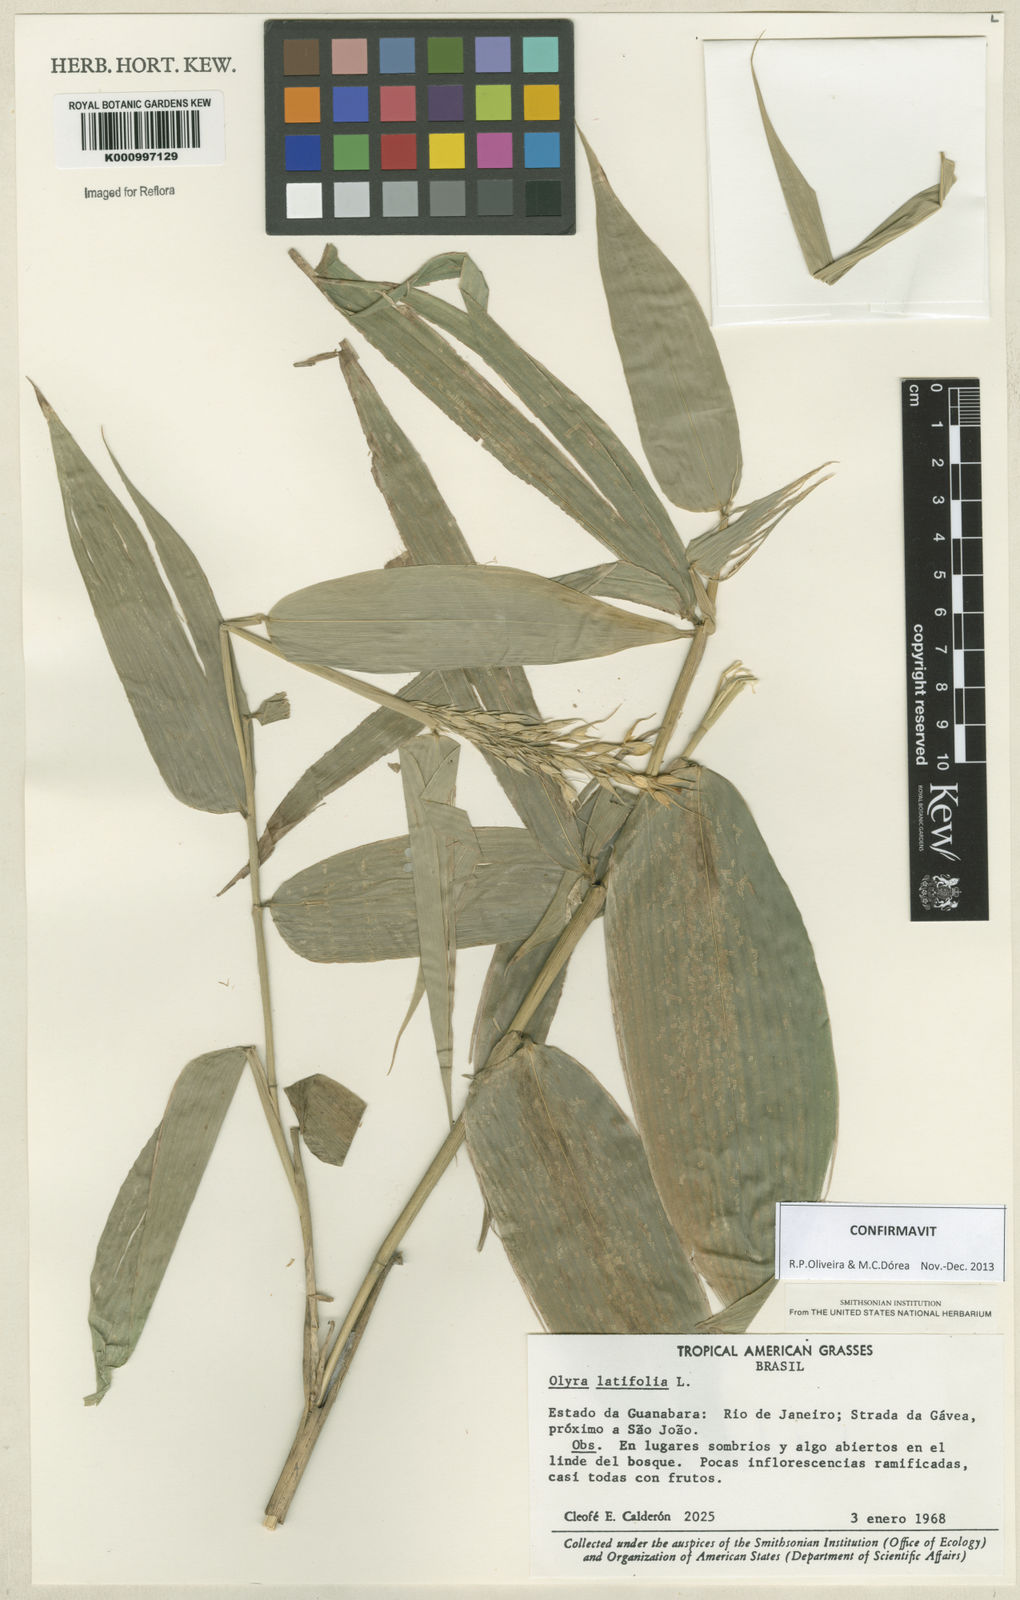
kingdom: Plantae
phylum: Tracheophyta
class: Liliopsida
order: Poales
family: Poaceae
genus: Olyra
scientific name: Olyra latifolia
